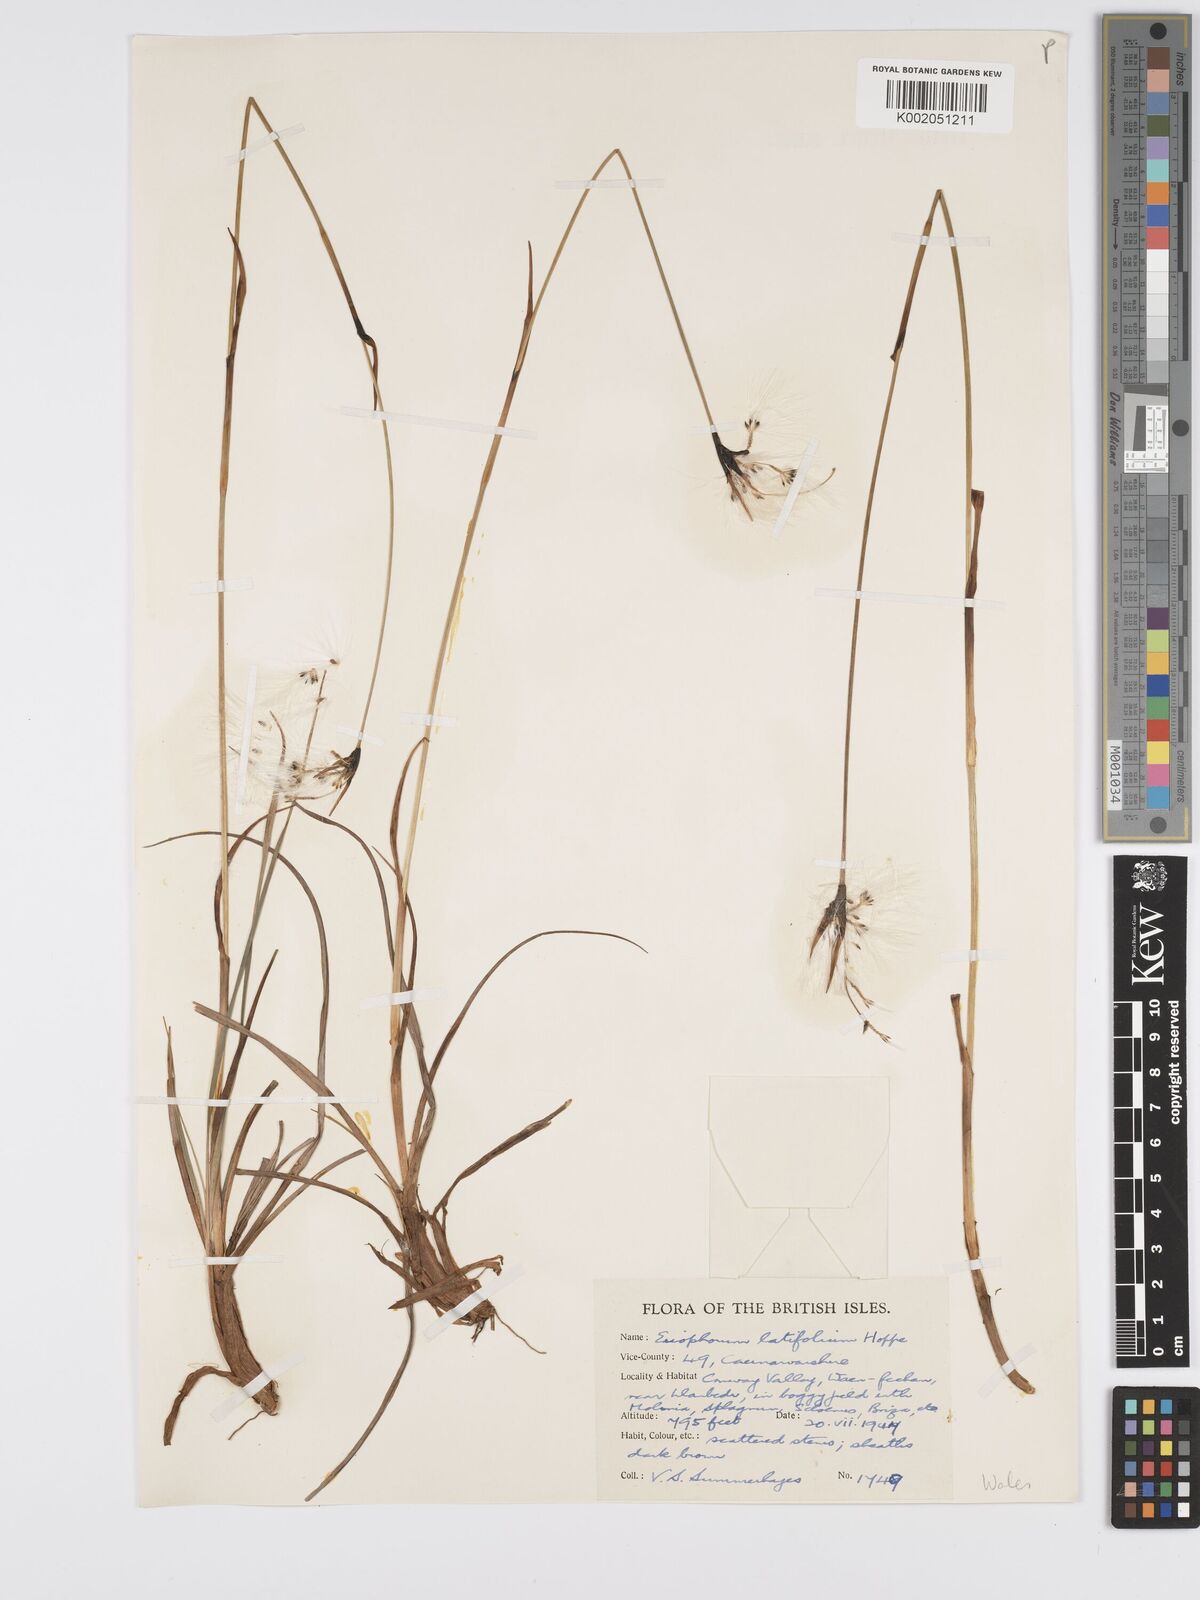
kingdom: Plantae
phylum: Tracheophyta
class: Liliopsida
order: Poales
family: Cyperaceae
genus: Eriophorum
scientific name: Eriophorum latifolium
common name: Broad-leaved cottongrass
